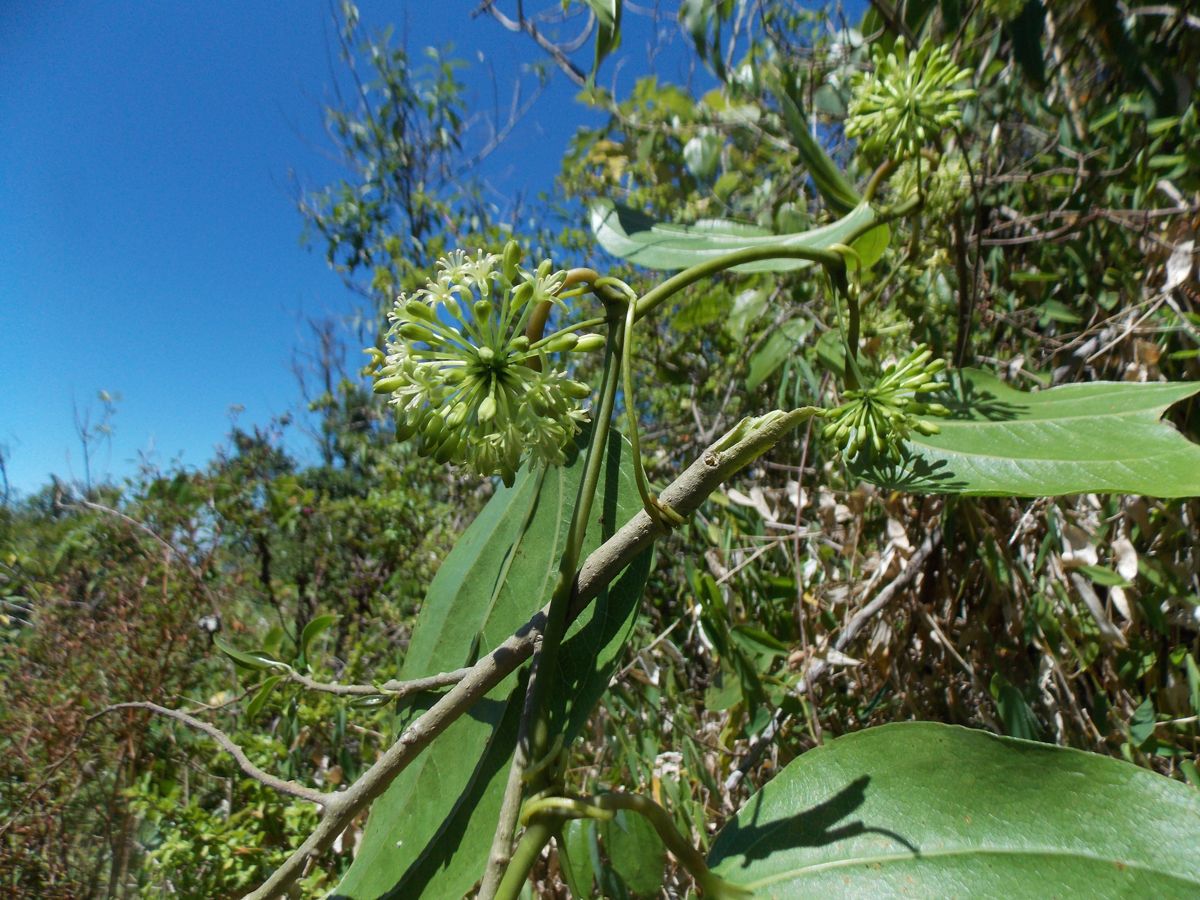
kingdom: Plantae
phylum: Tracheophyta
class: Liliopsida
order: Liliales
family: Smilacaceae
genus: Smilax
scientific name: Smilax subpubescens
